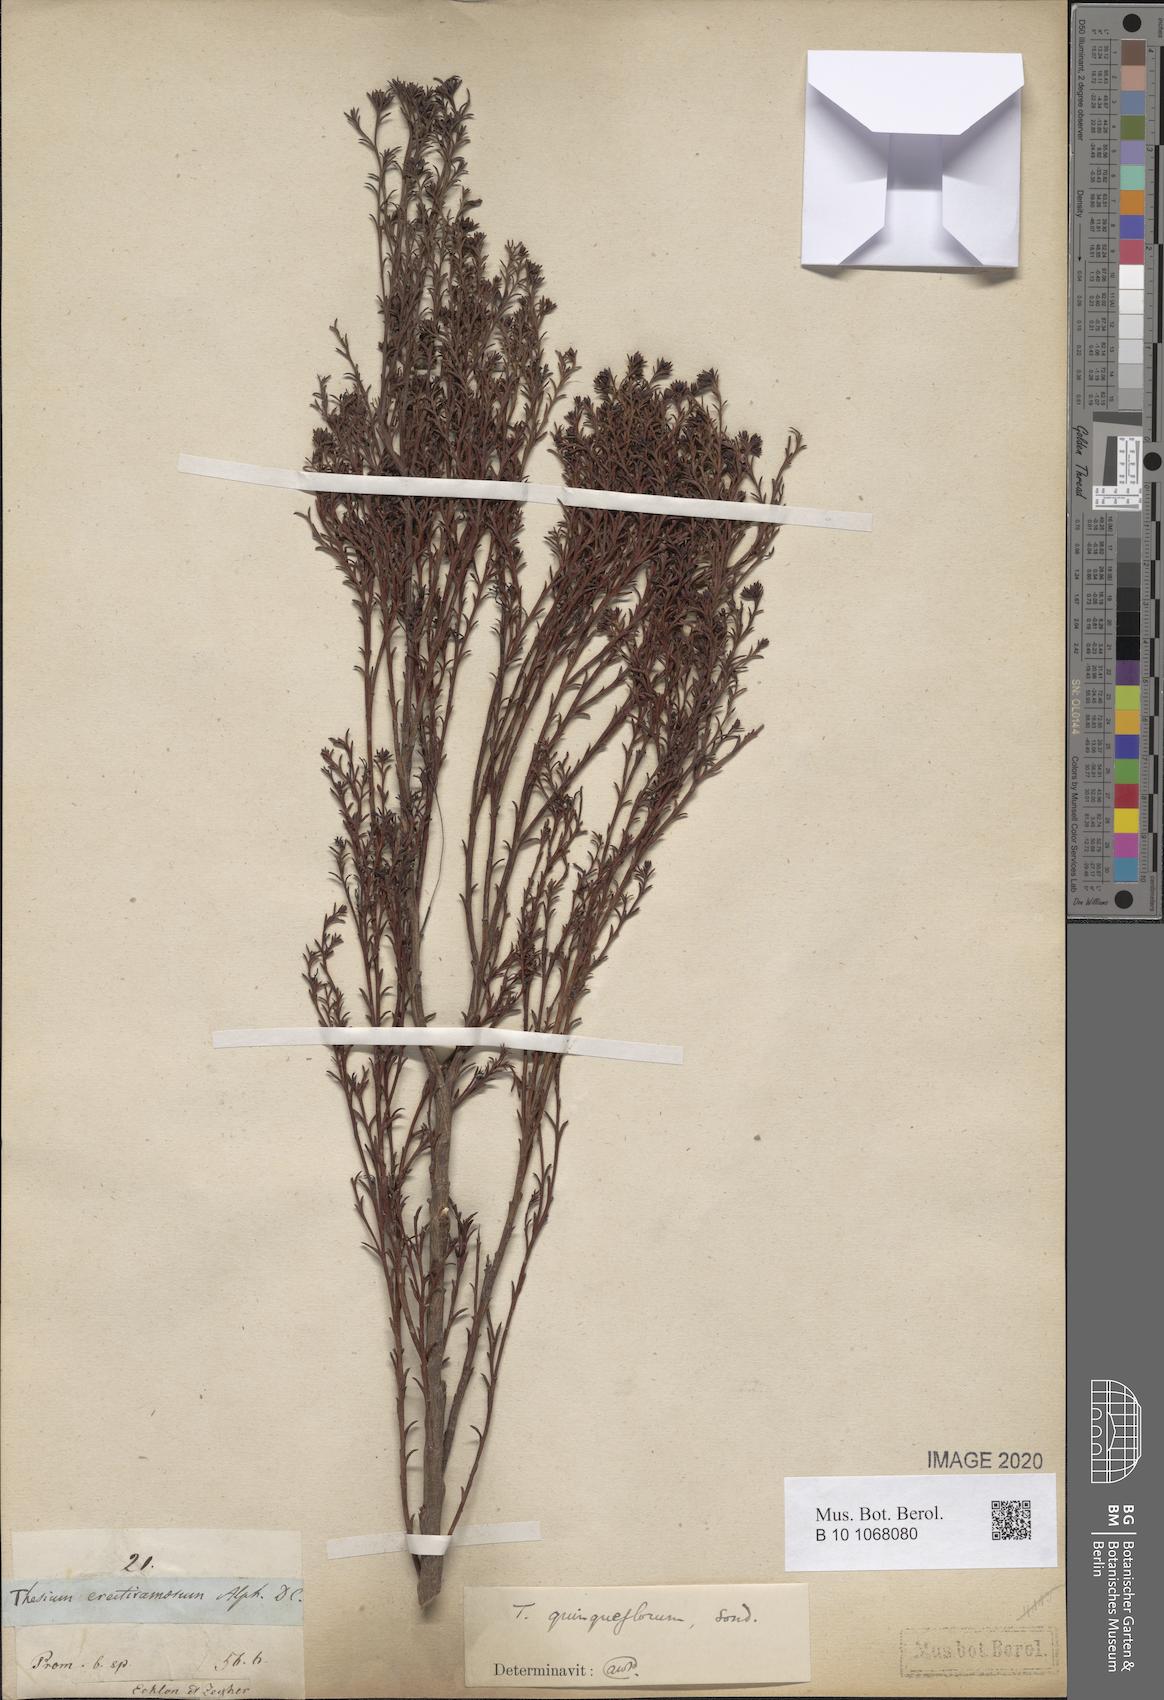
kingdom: Plantae
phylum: Tracheophyta
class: Magnoliopsida
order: Santalales
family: Thesiaceae
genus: Thesium
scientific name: Thesium quinqueflorum
